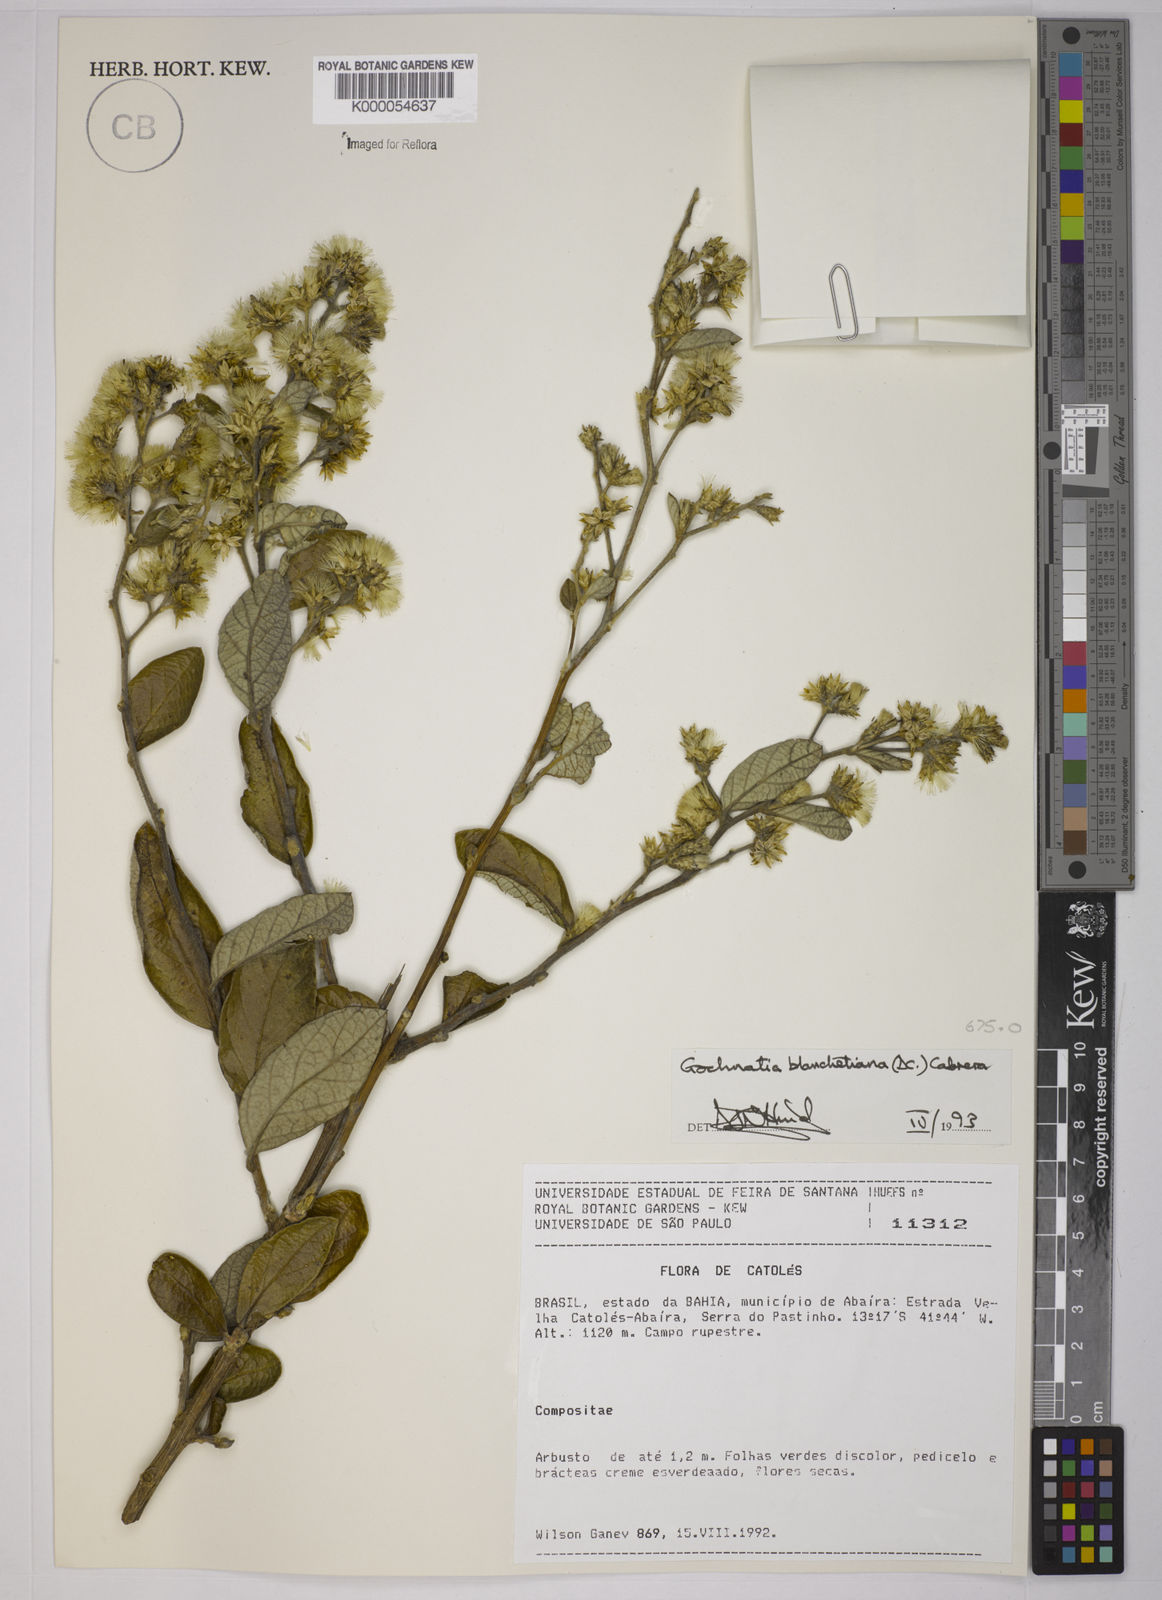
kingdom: Plantae
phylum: Tracheophyta
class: Magnoliopsida
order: Asterales
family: Asteraceae
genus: Moquiniastrum
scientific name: Moquiniastrum blanchetianum
